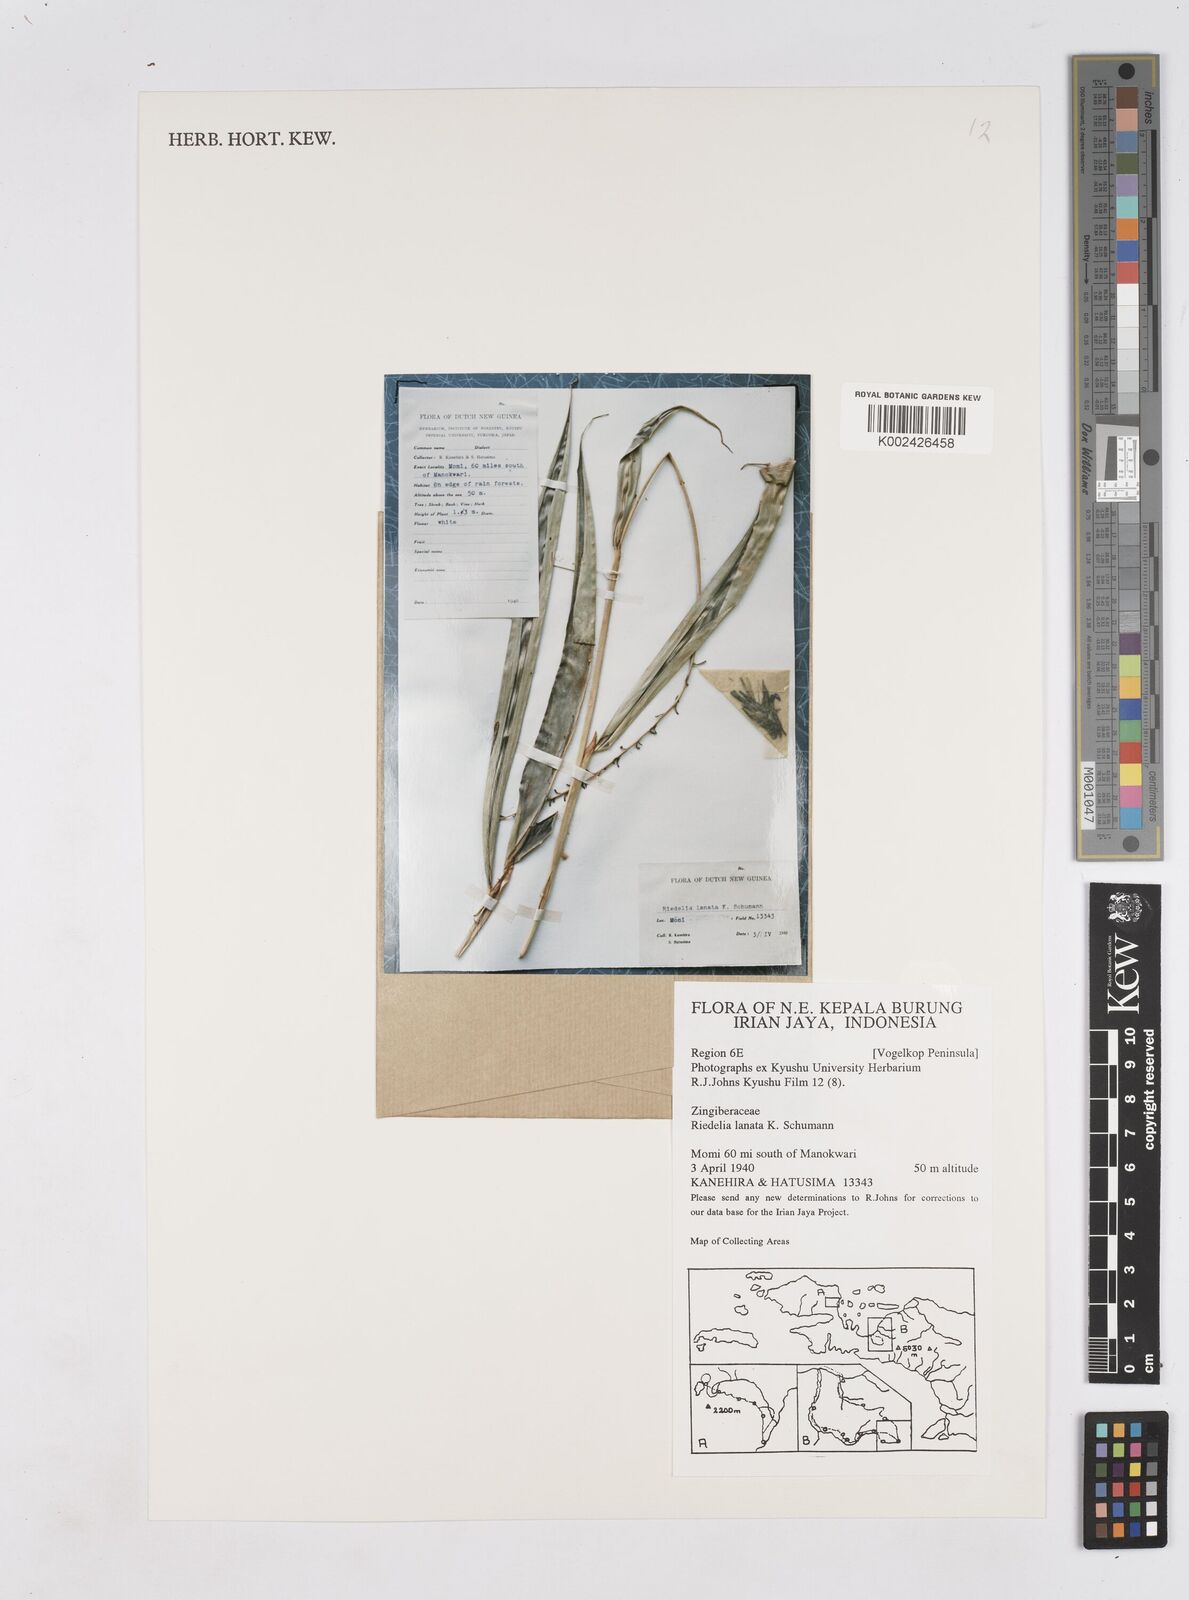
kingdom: Plantae
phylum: Tracheophyta
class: Liliopsida
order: Zingiberales
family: Zingiberaceae
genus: Riedelia
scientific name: Riedelia lanata
